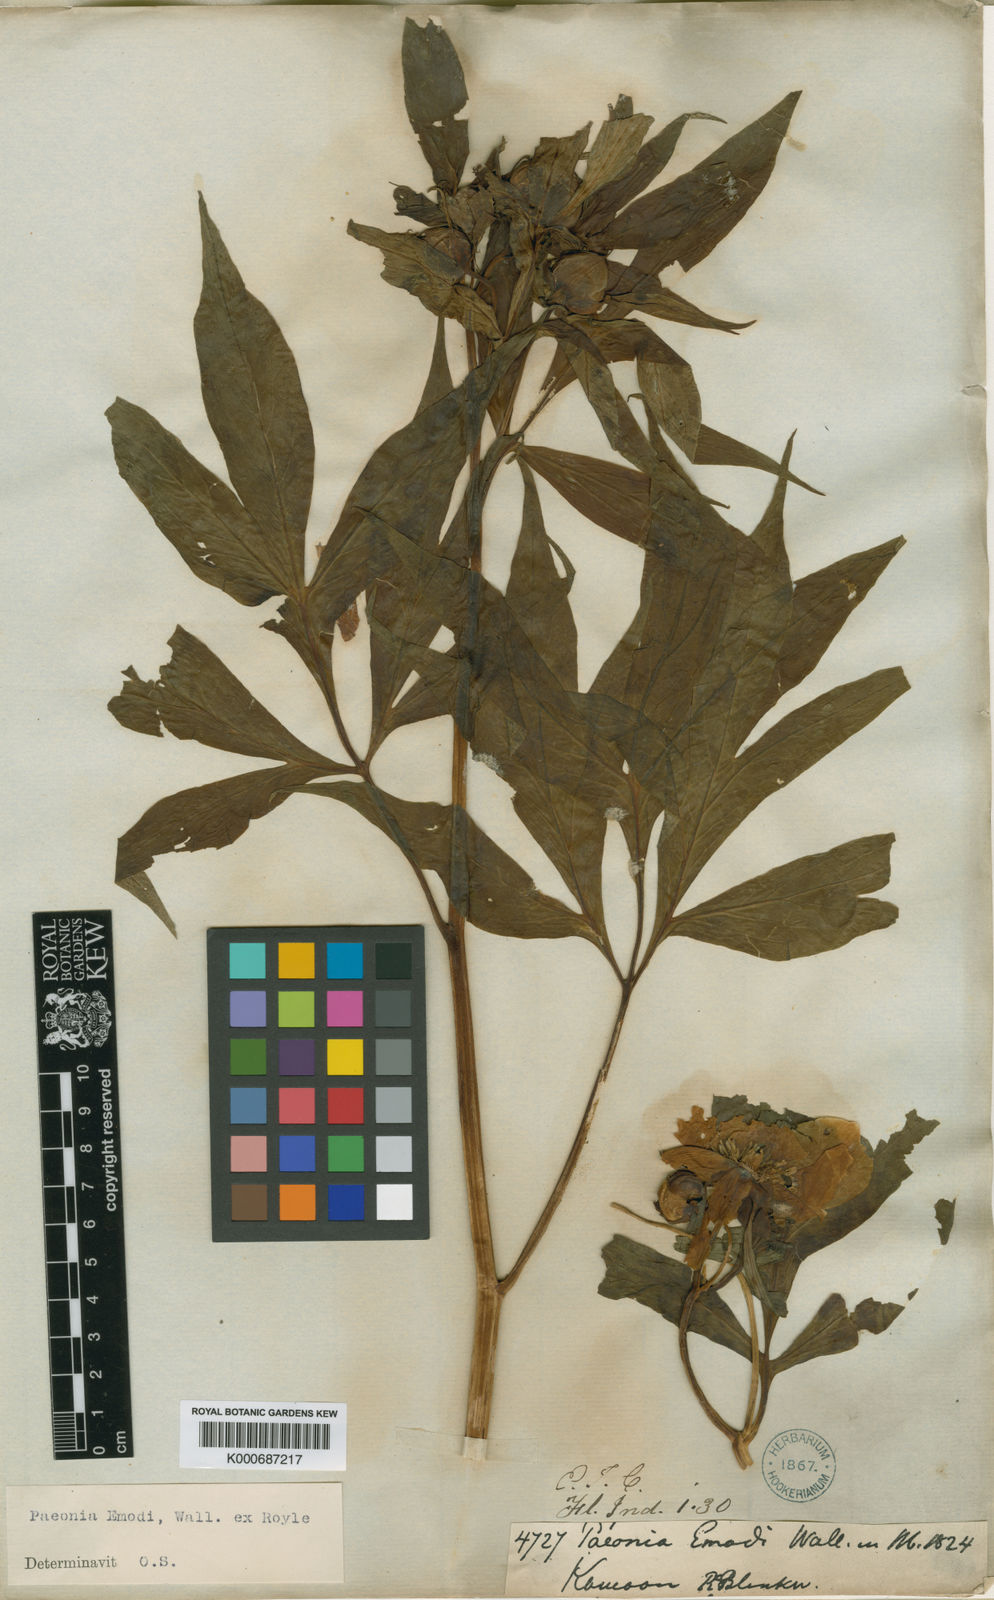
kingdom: Plantae
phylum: Tracheophyta
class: Magnoliopsida
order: Saxifragales
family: Paeoniaceae
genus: Paeonia
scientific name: Paeonia emodi
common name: Himalayan peony
